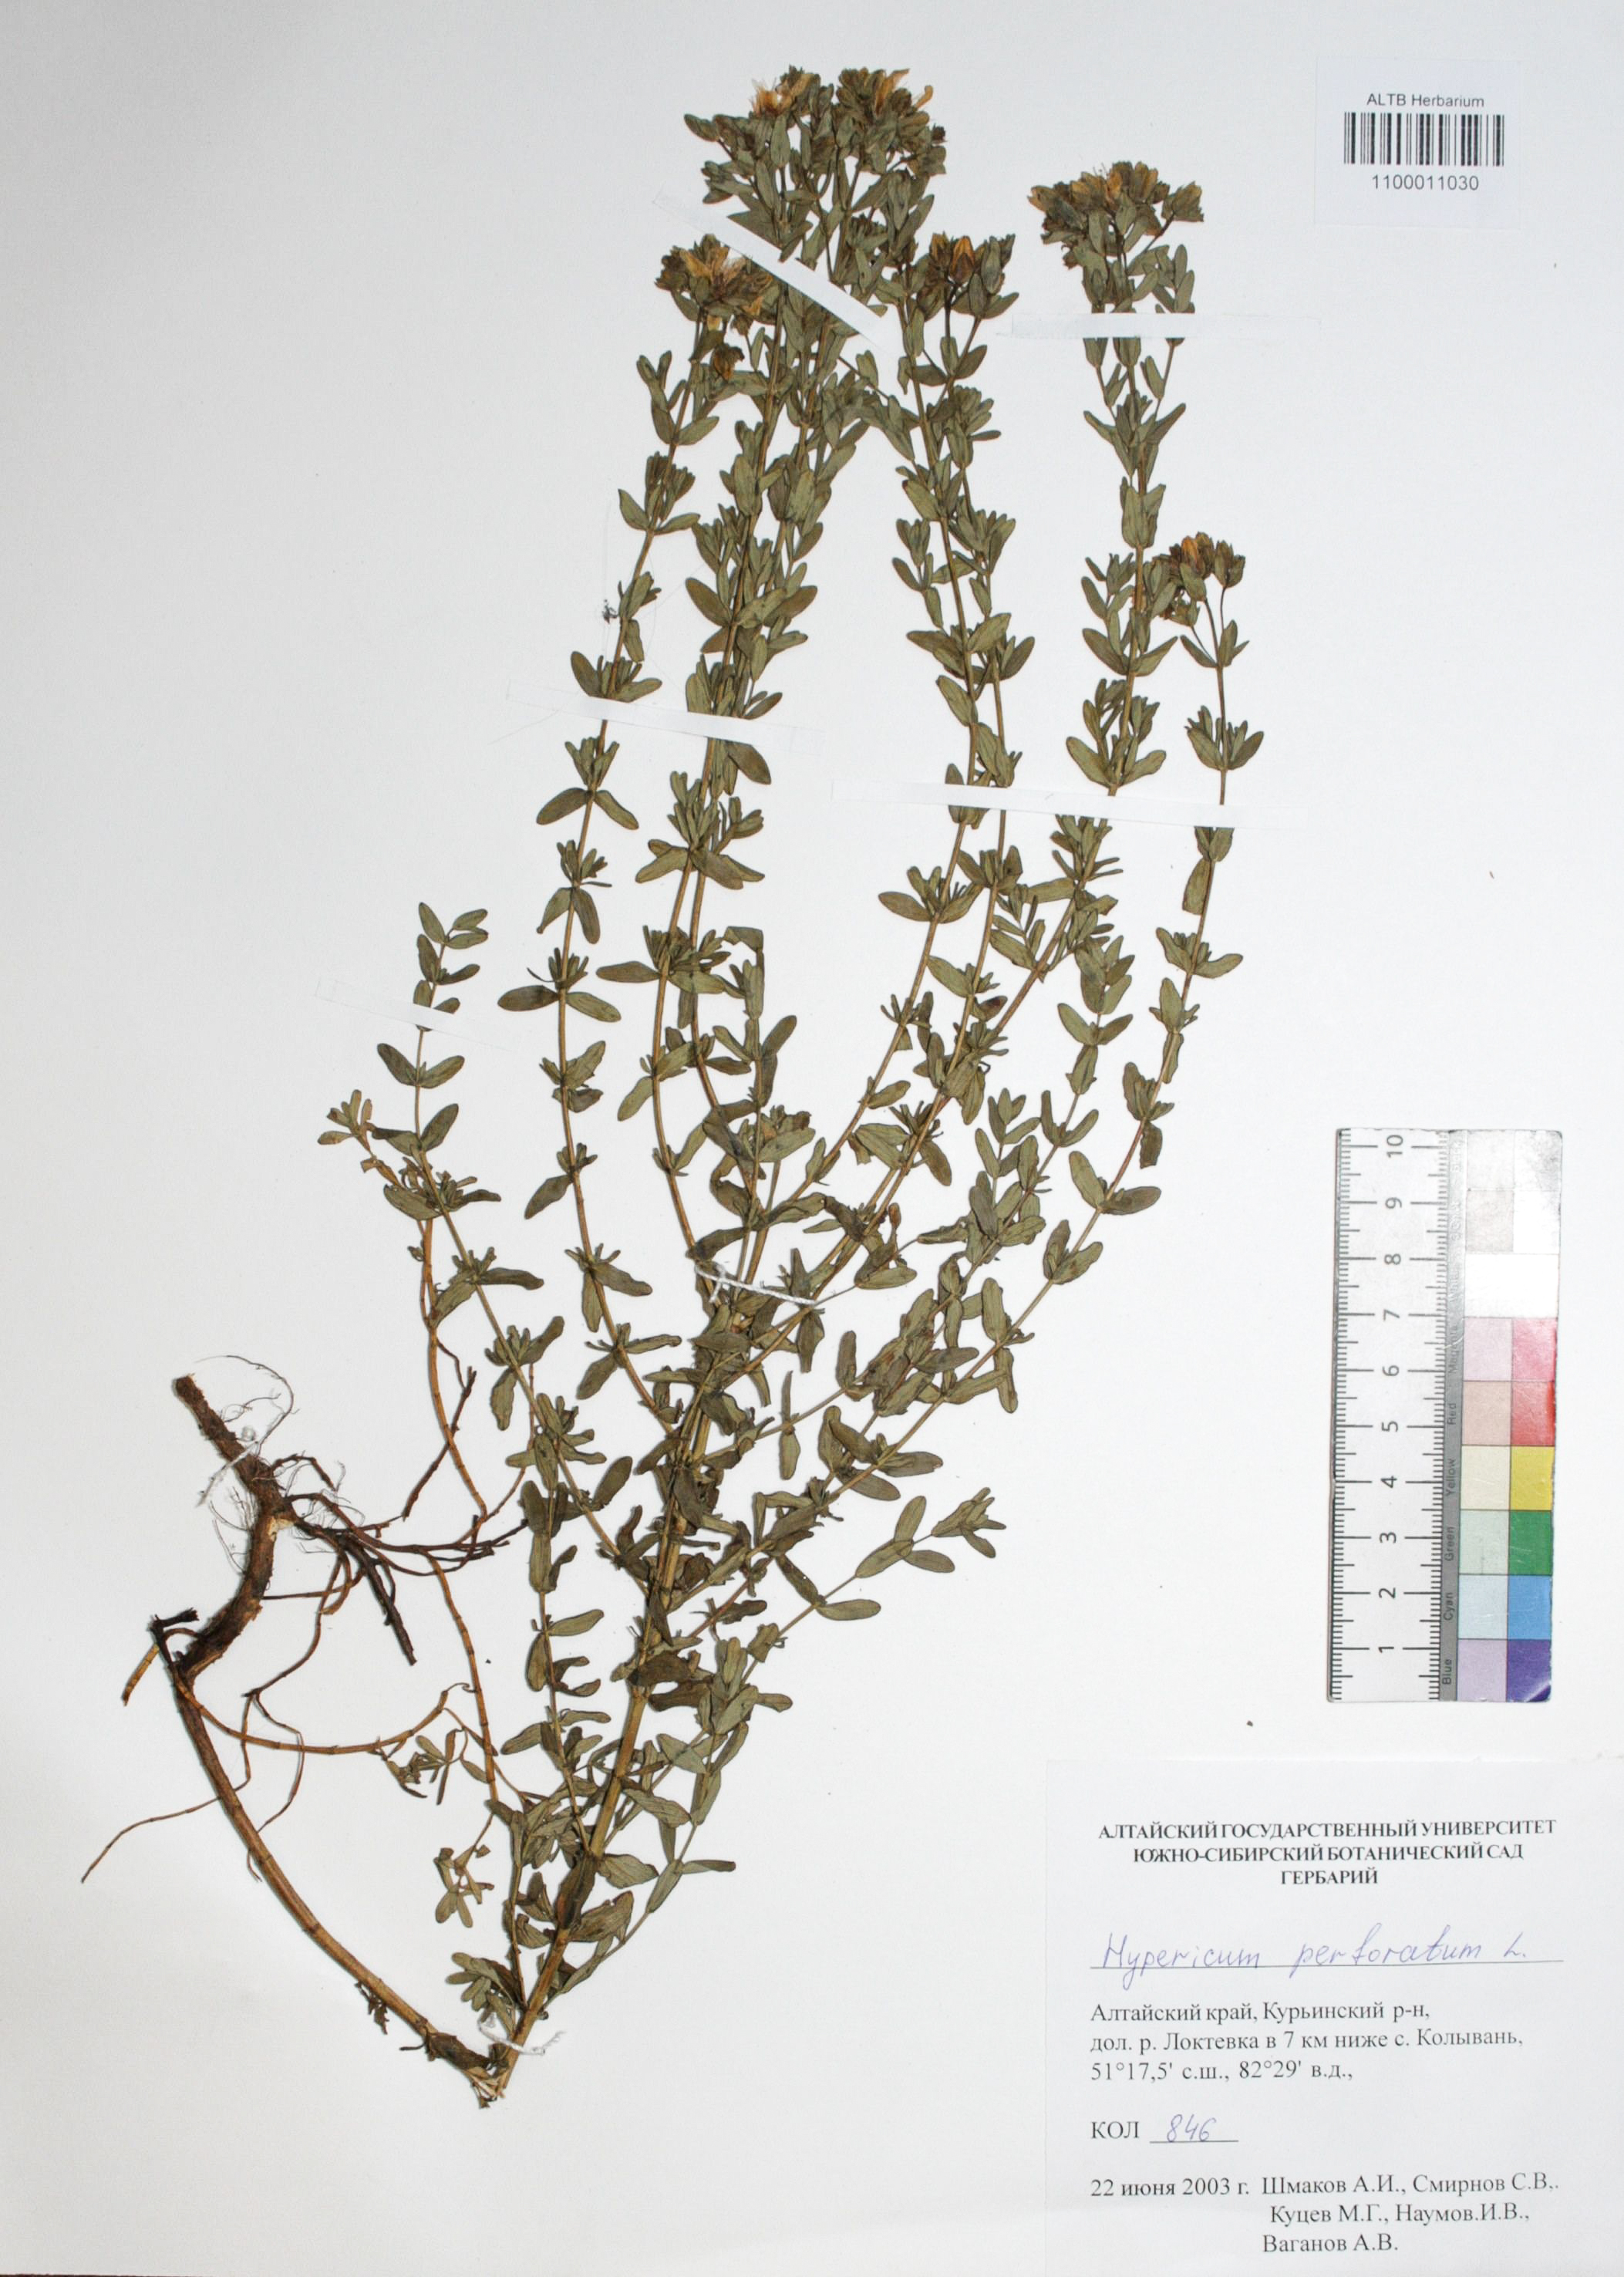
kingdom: Plantae
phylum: Tracheophyta
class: Magnoliopsida
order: Malpighiales
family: Hypericaceae
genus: Hypericum
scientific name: Hypericum perforatum
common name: Common st. johnswort
